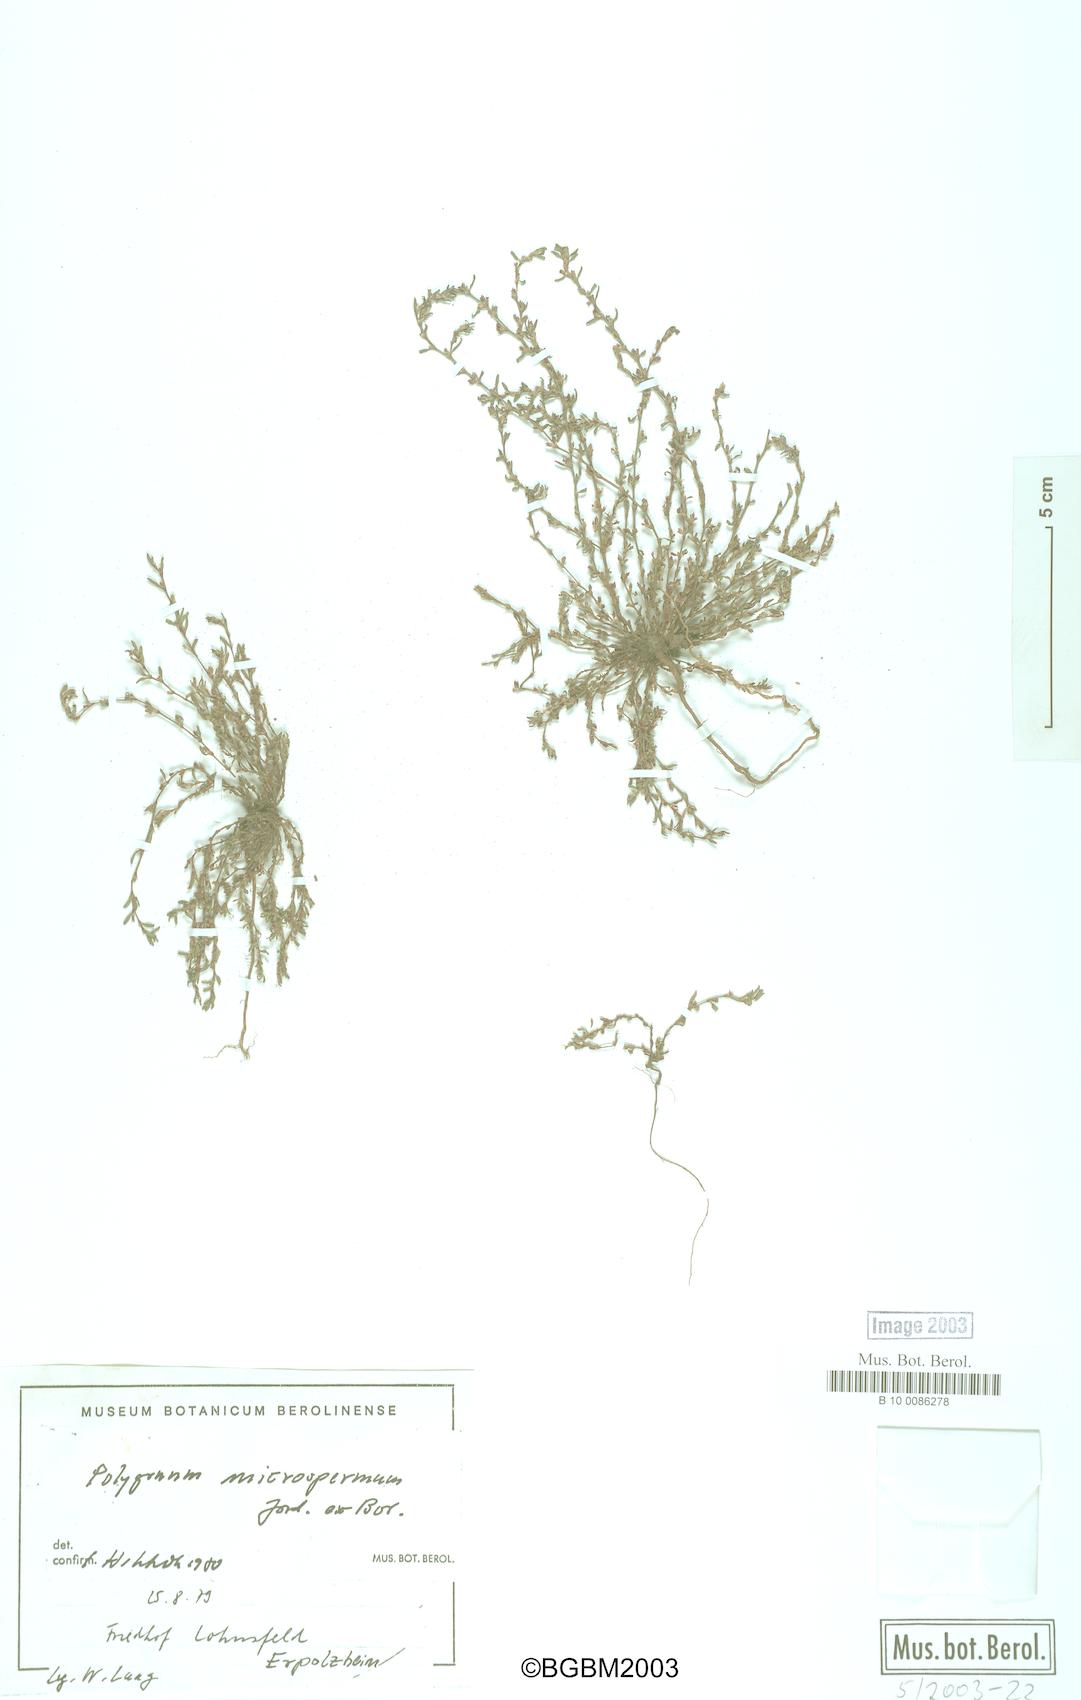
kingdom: Plantae
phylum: Tracheophyta
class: Magnoliopsida
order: Caryophyllales
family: Polygonaceae
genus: Polygonum
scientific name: Polygonum
